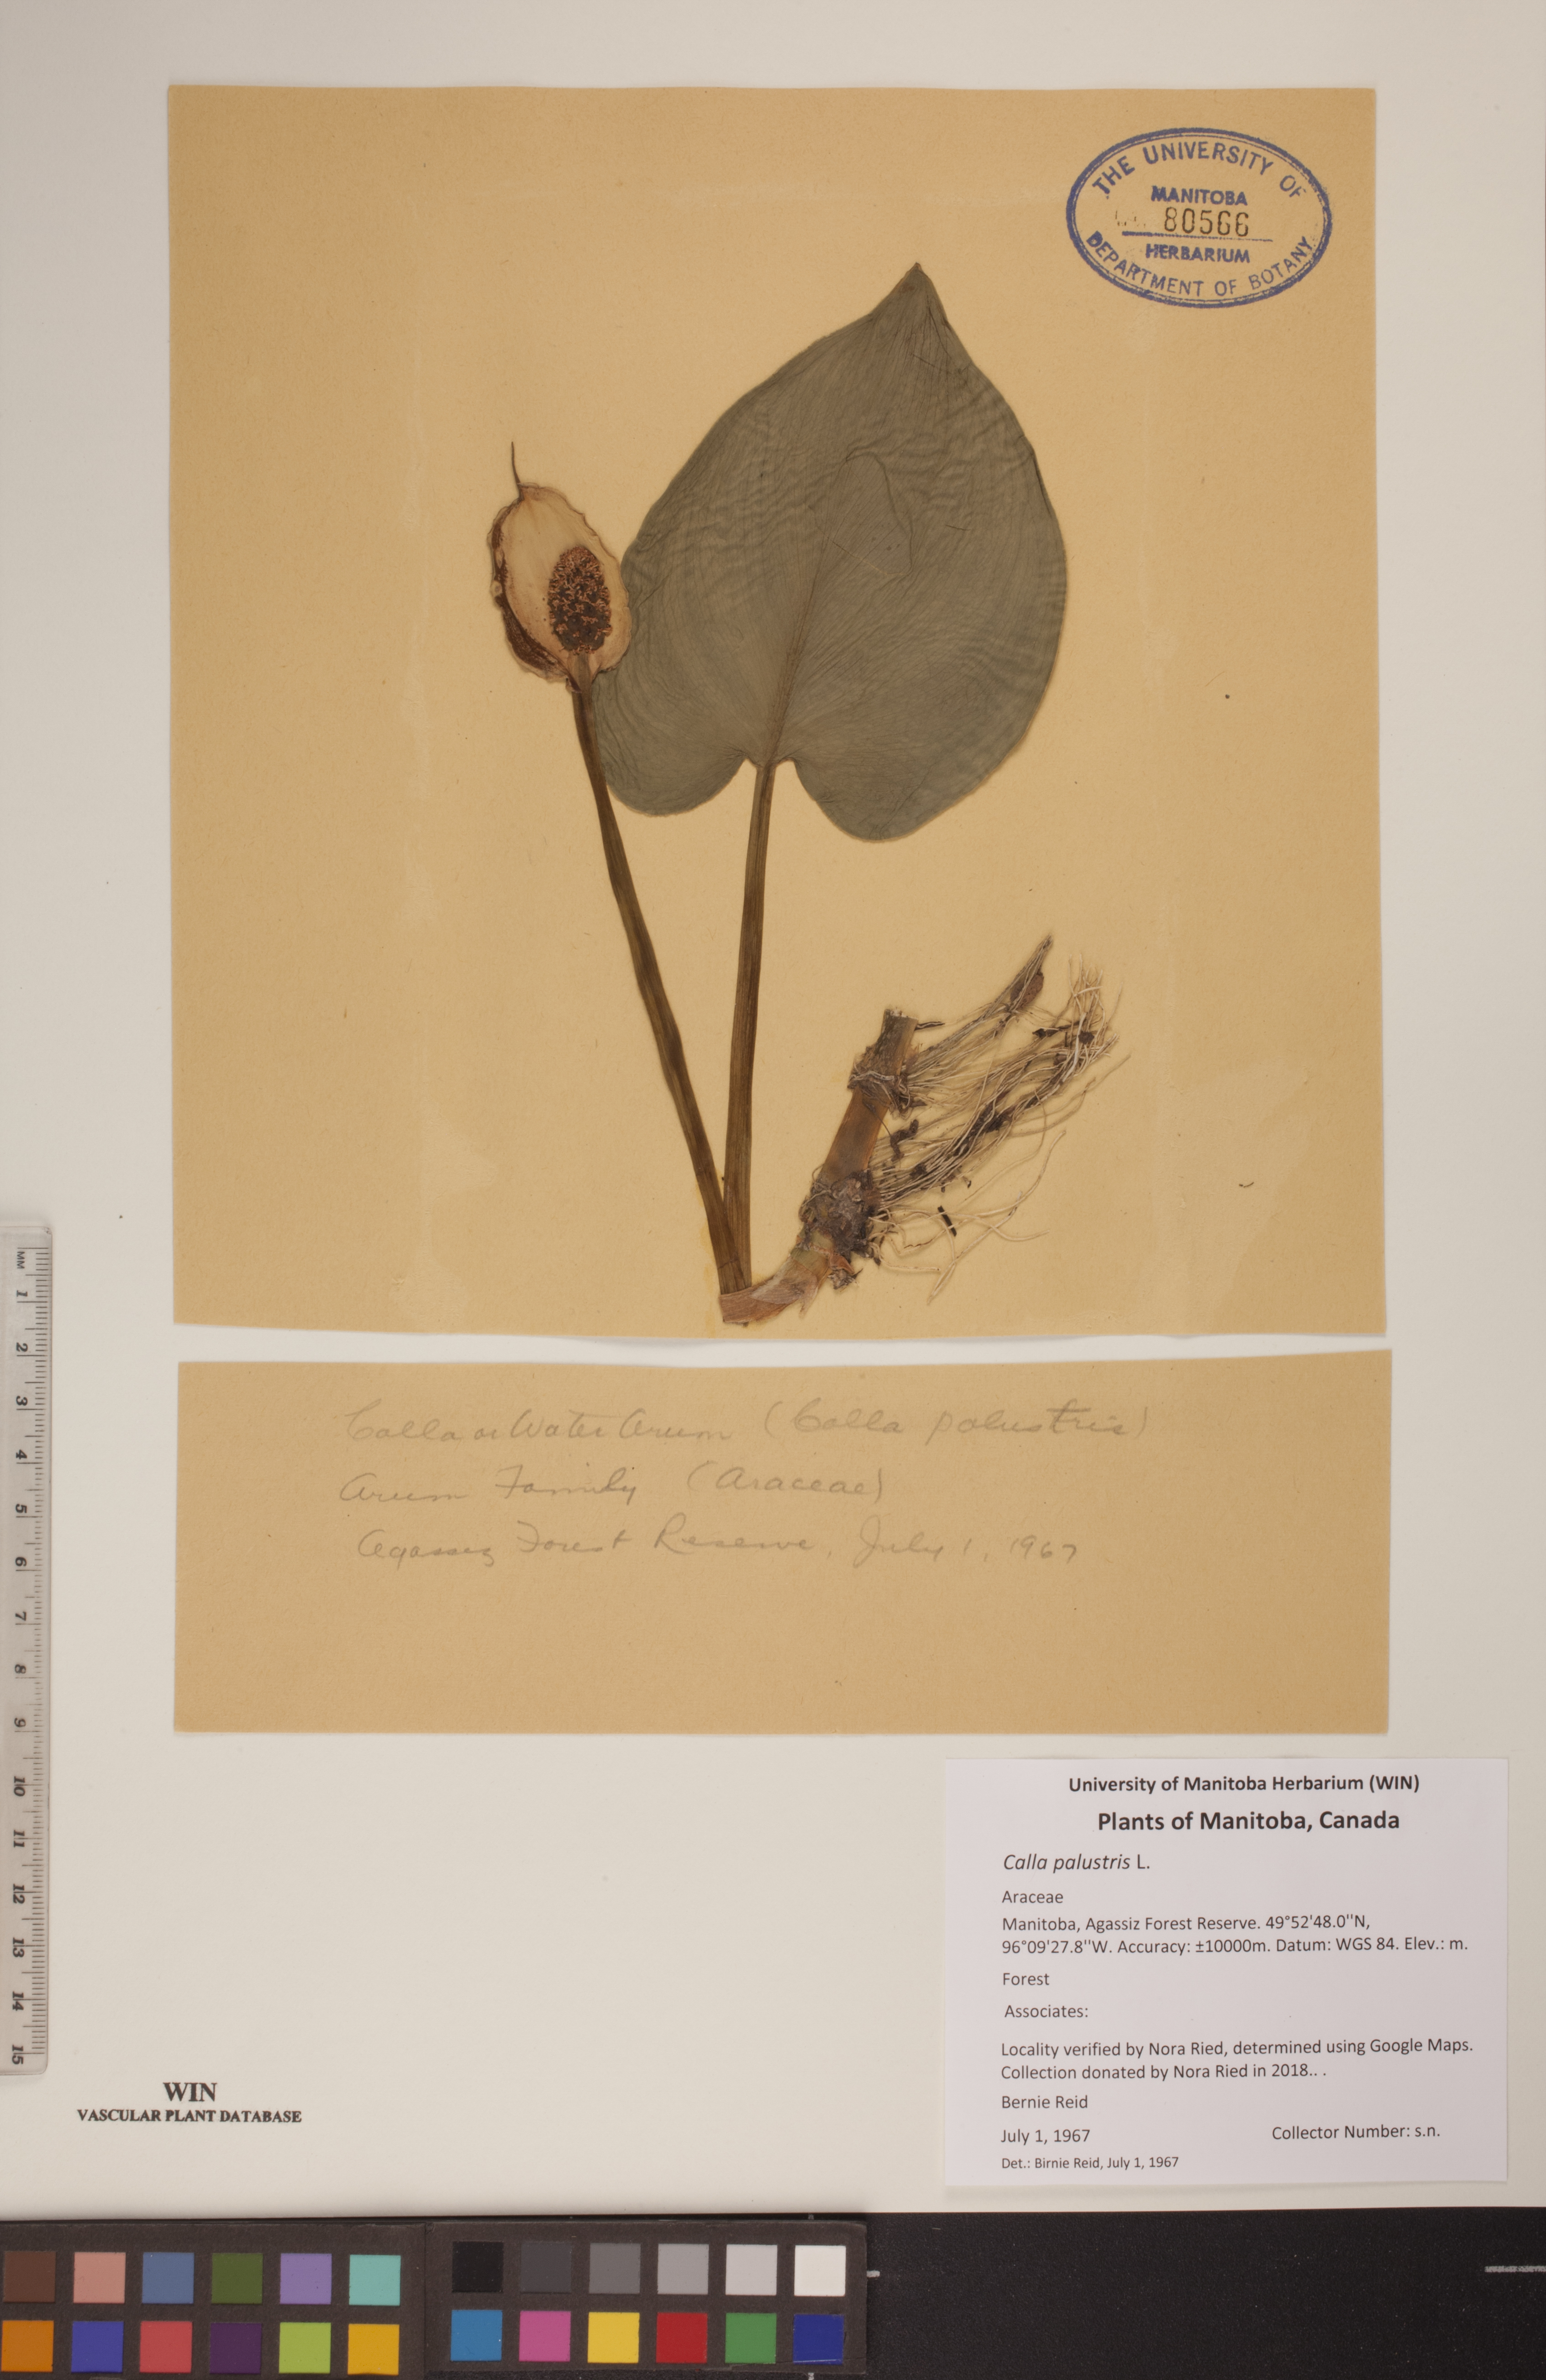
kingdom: Plantae
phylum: Tracheophyta
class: Liliopsida
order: Alismatales
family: Araceae
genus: Calla
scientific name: Calla palustris
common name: Bog arum
